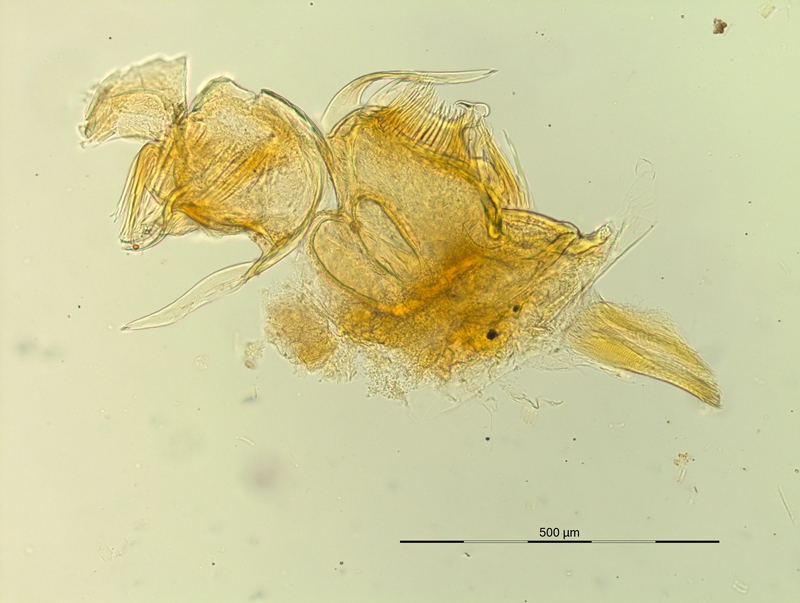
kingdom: Animalia
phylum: Arthropoda
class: Diplopoda
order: Chordeumatida
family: Craspedosomatidae
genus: Pyrgocyphosoma
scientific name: Pyrgocyphosoma dentatum
